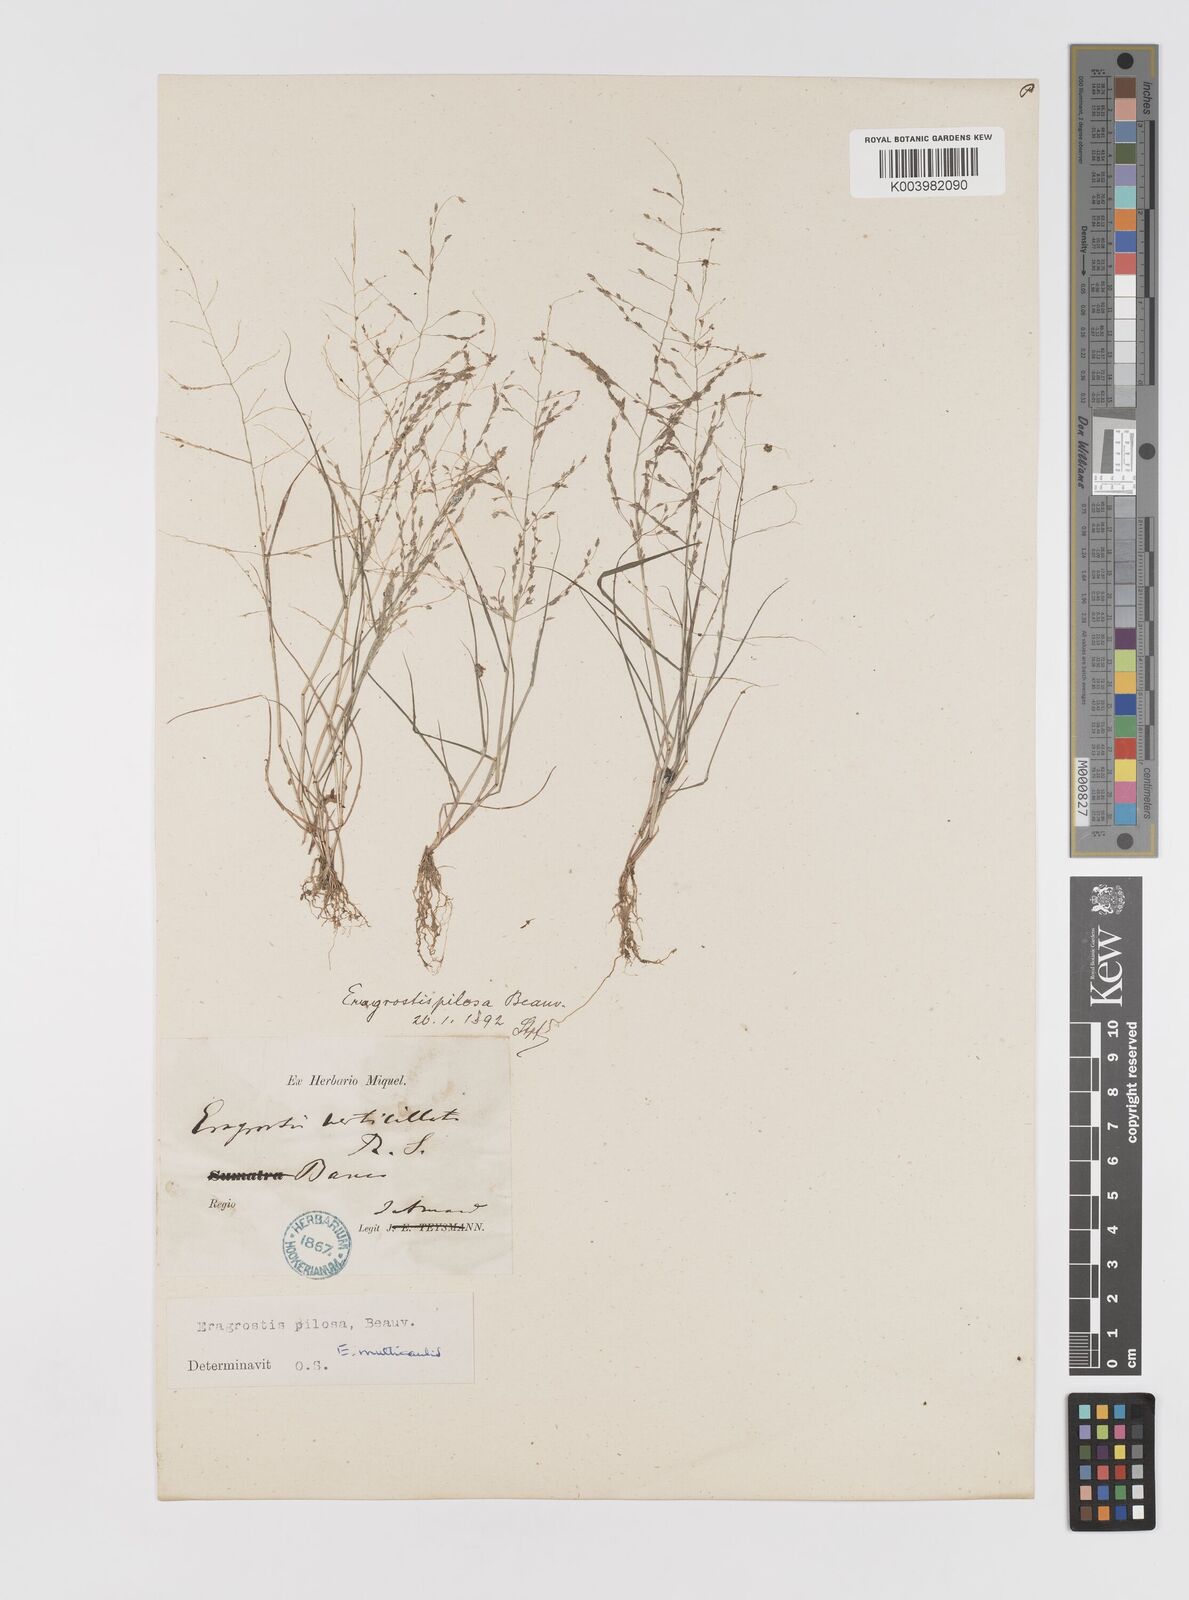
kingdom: Plantae
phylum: Tracheophyta
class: Liliopsida
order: Poales
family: Poaceae
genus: Eragrostis
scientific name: Eragrostis pilosa
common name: Indian lovegrass
